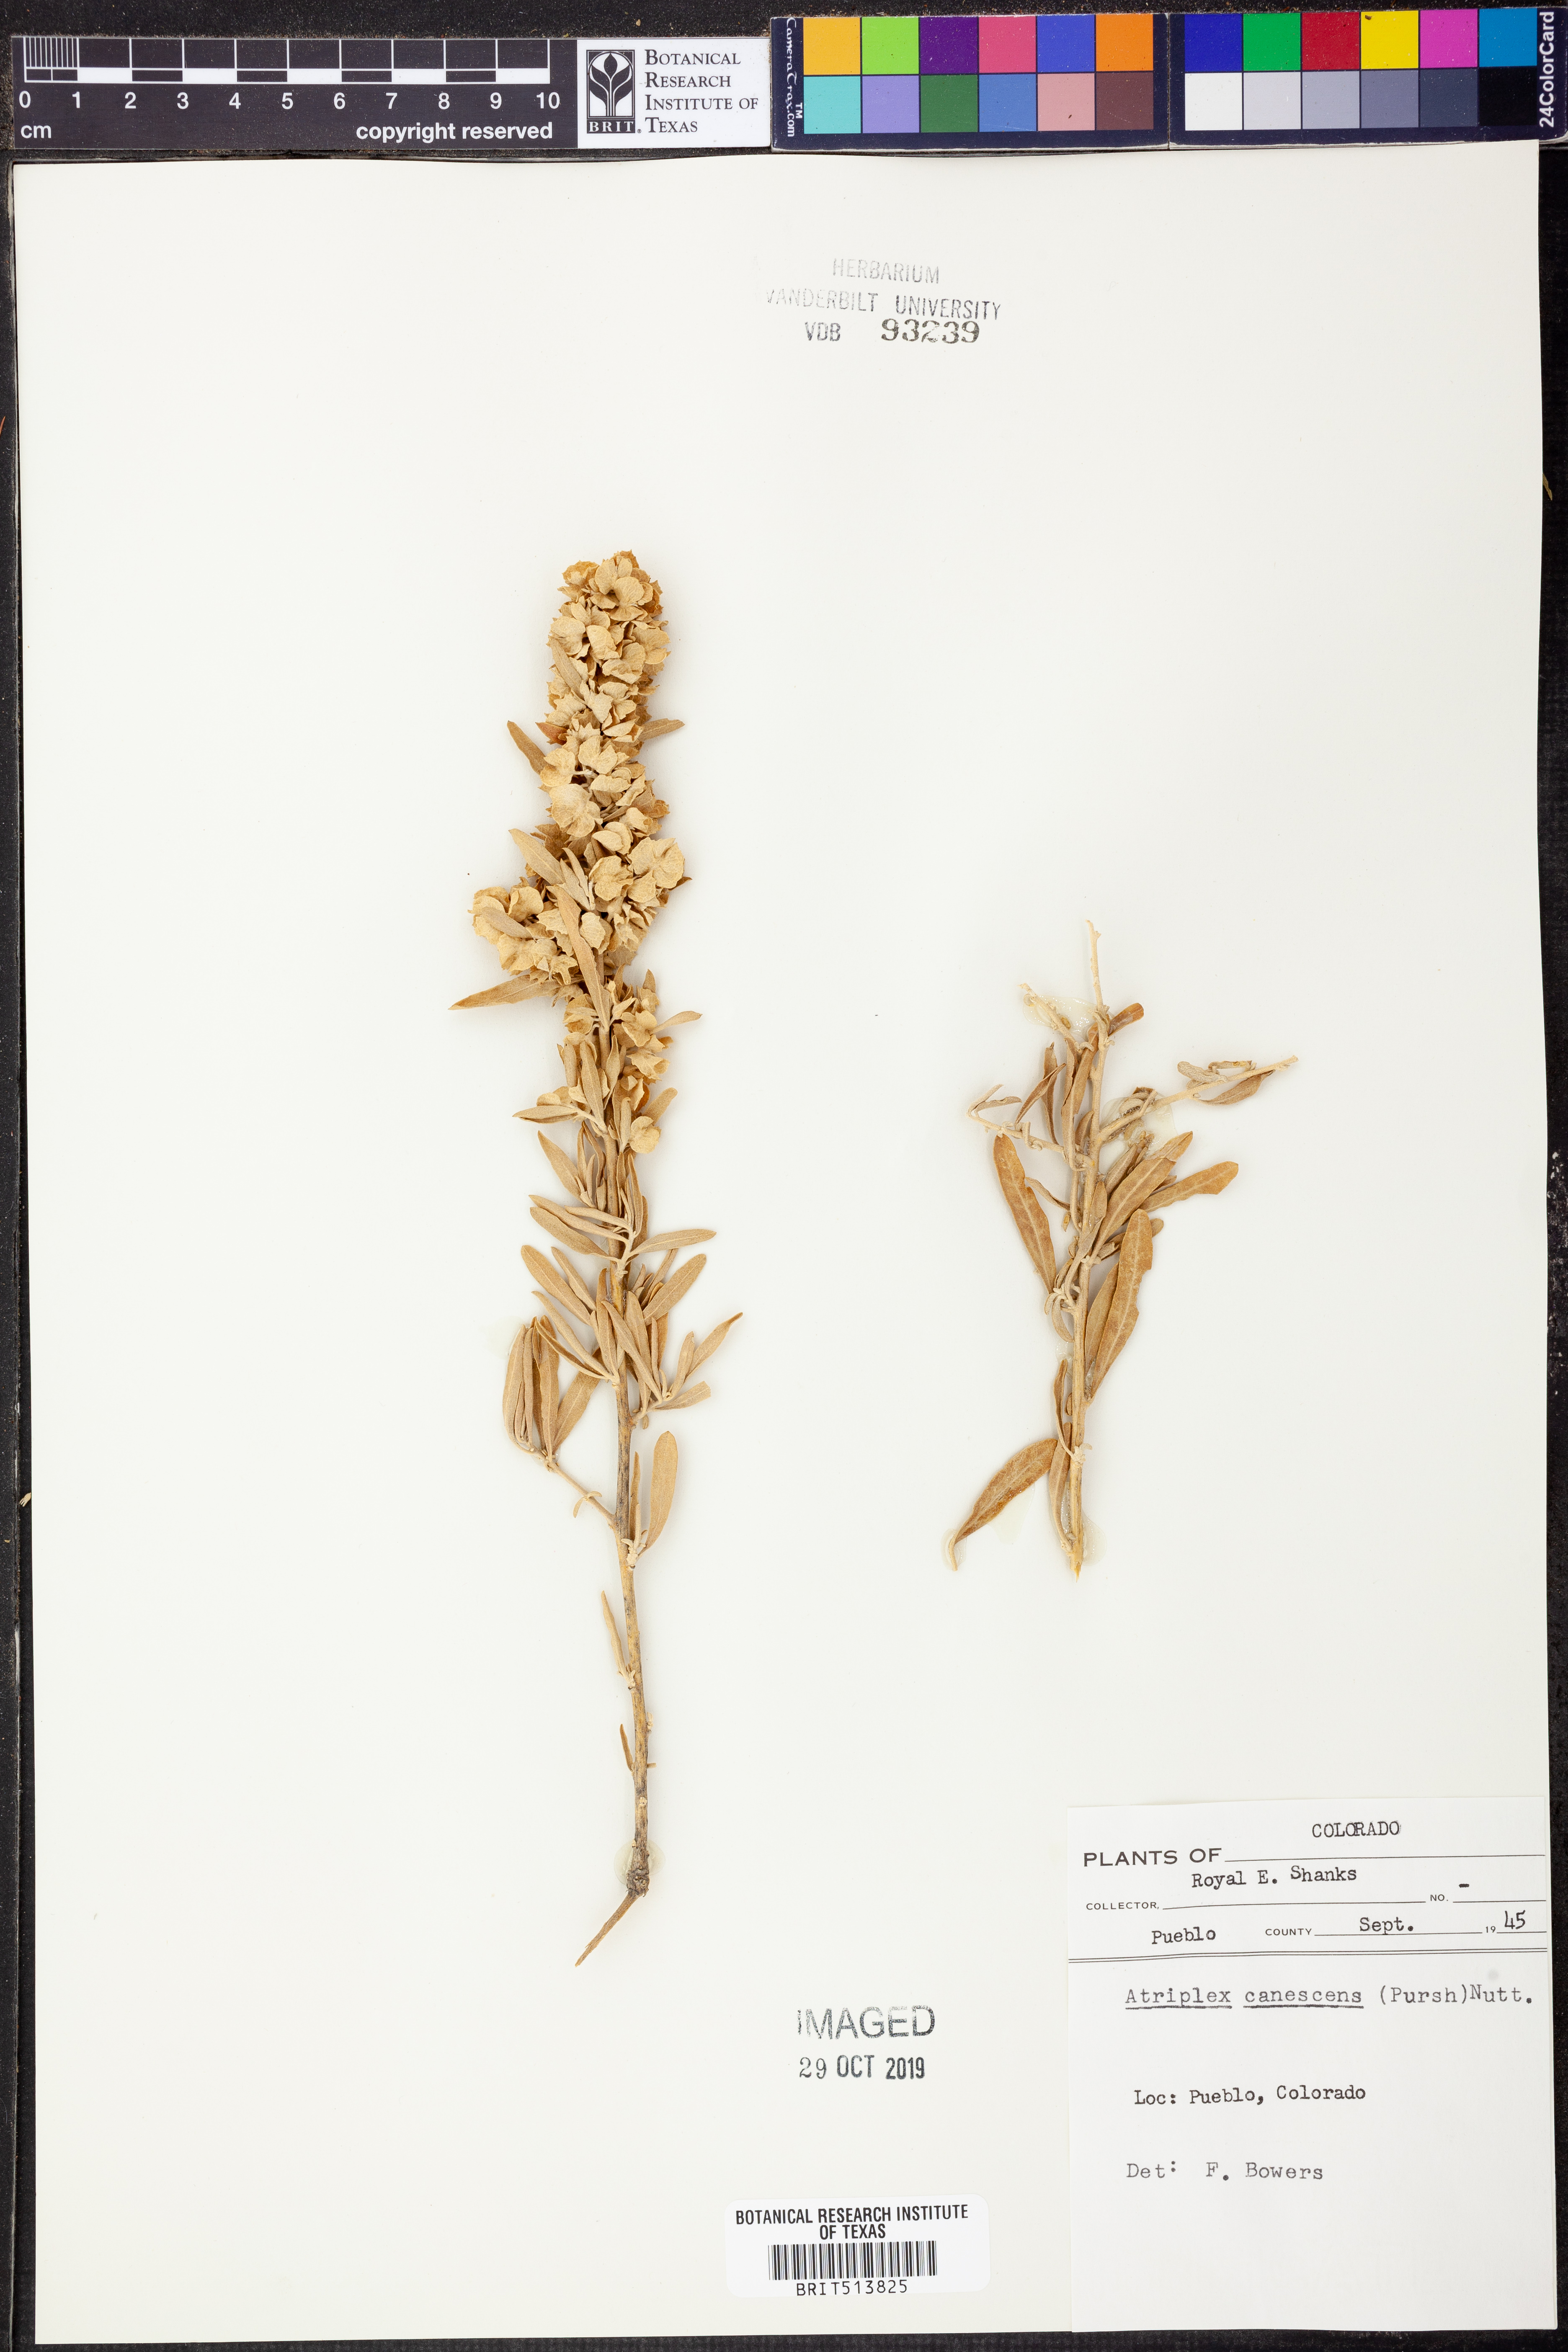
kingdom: Plantae
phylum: Tracheophyta
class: Magnoliopsida
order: Caryophyllales
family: Amaranthaceae
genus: Atriplex
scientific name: Atriplex canescens
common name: Four-wing saltbush
